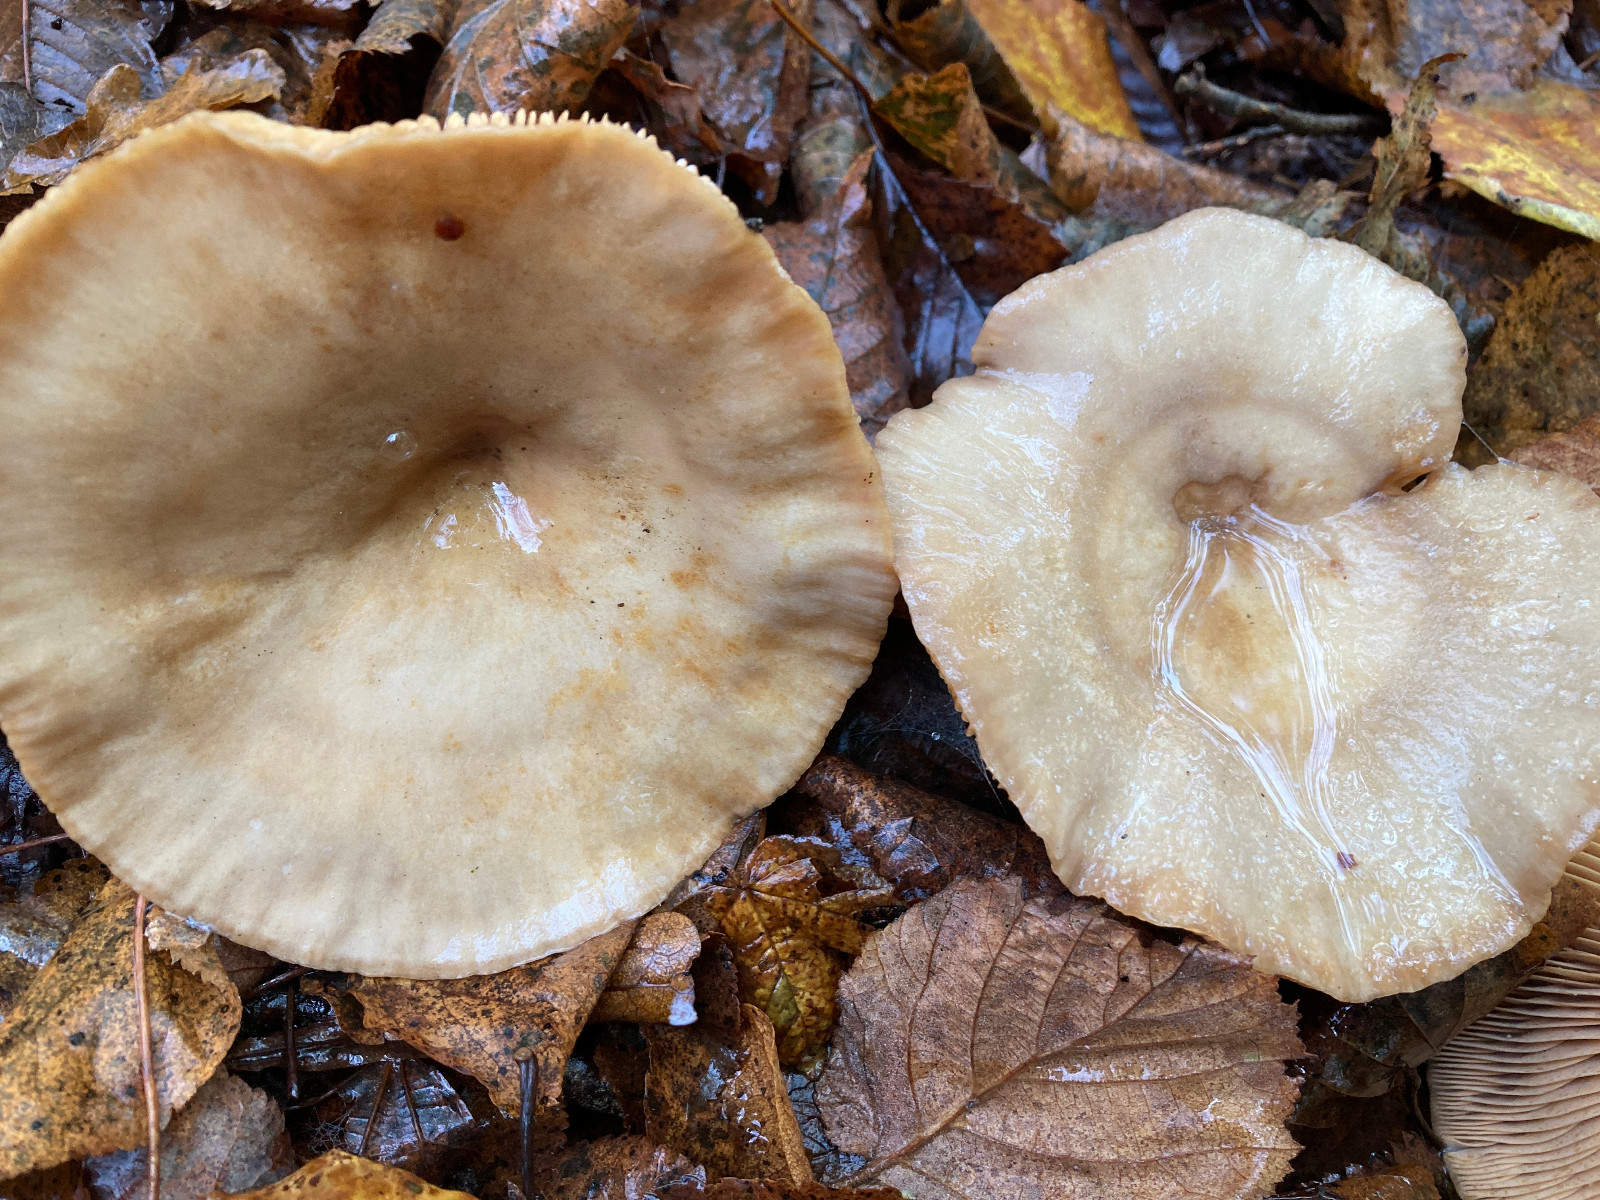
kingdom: Fungi
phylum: Basidiomycota
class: Agaricomycetes
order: Russulales
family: Russulaceae
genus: Lactarius
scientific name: Lactarius pyrogalus
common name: hassel-mælkehat
